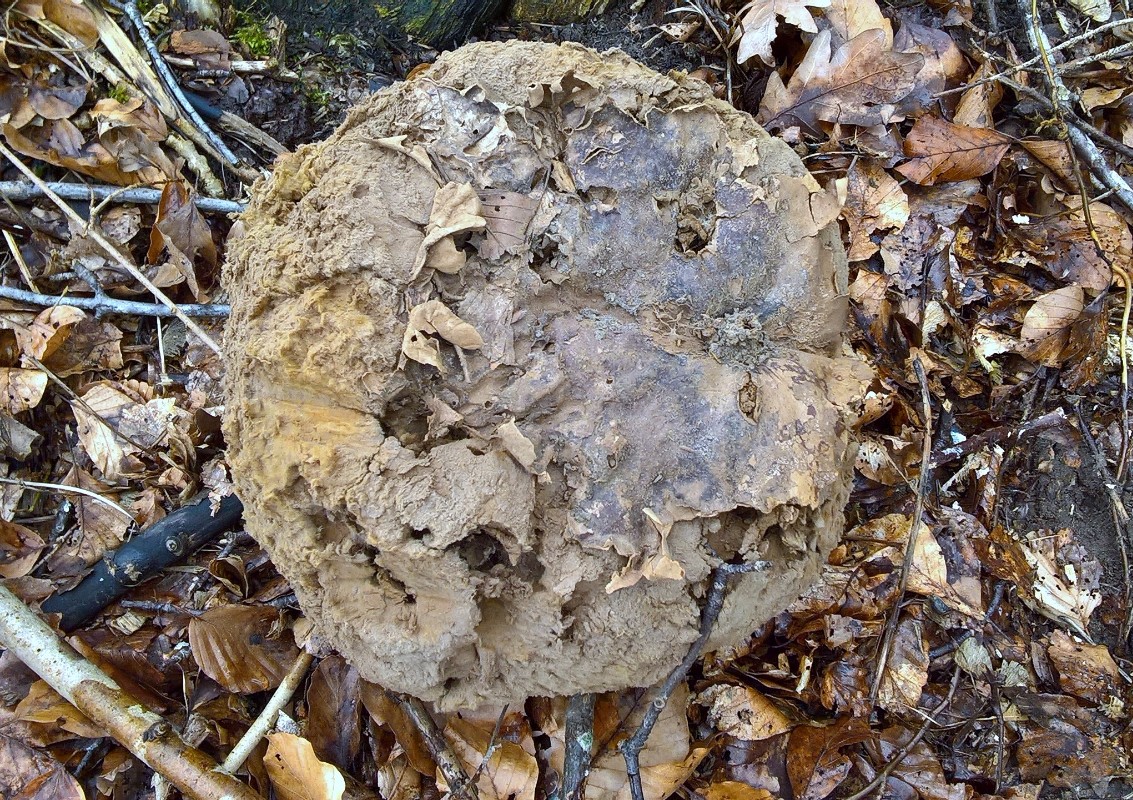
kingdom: Fungi
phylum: Basidiomycota
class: Agaricomycetes
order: Agaricales
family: Lycoperdaceae
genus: Calvatia
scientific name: Calvatia gigantea
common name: kæmpestøvbold
